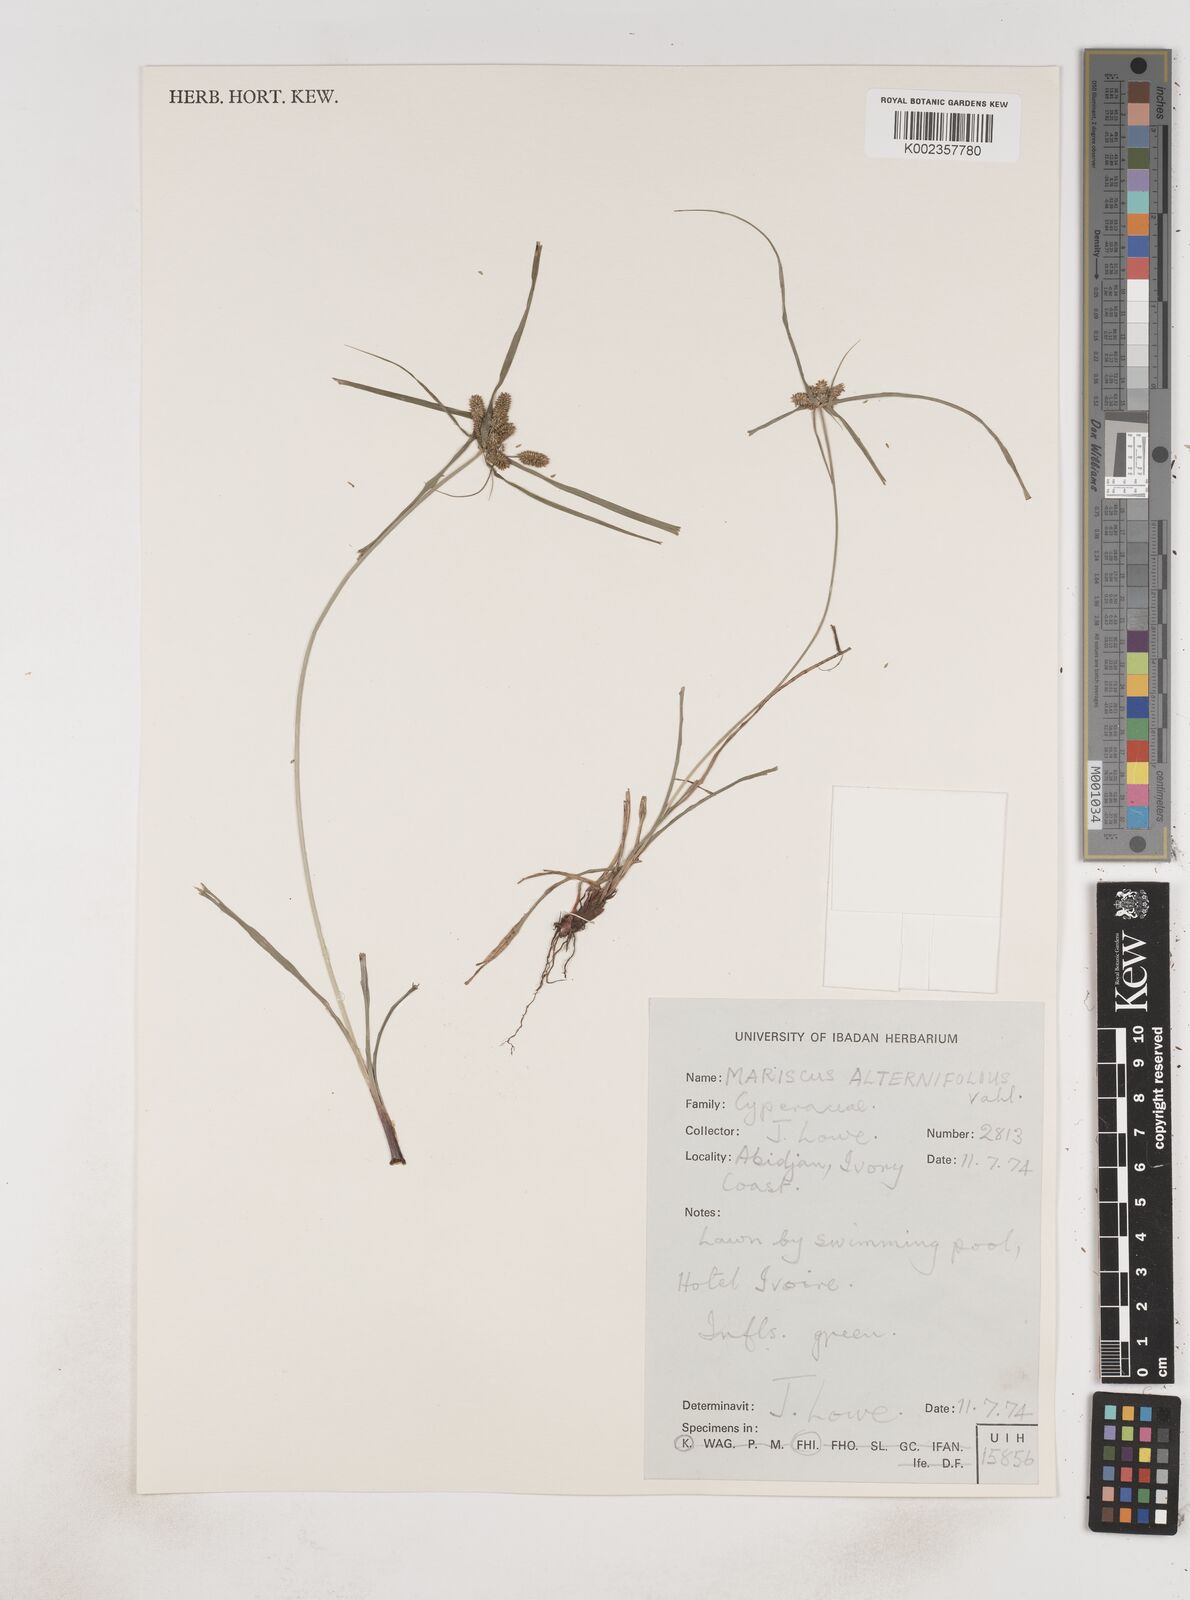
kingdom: Plantae
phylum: Tracheophyta
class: Liliopsida
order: Poales
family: Cyperaceae
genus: Cyperus
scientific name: Cyperus sublimis
